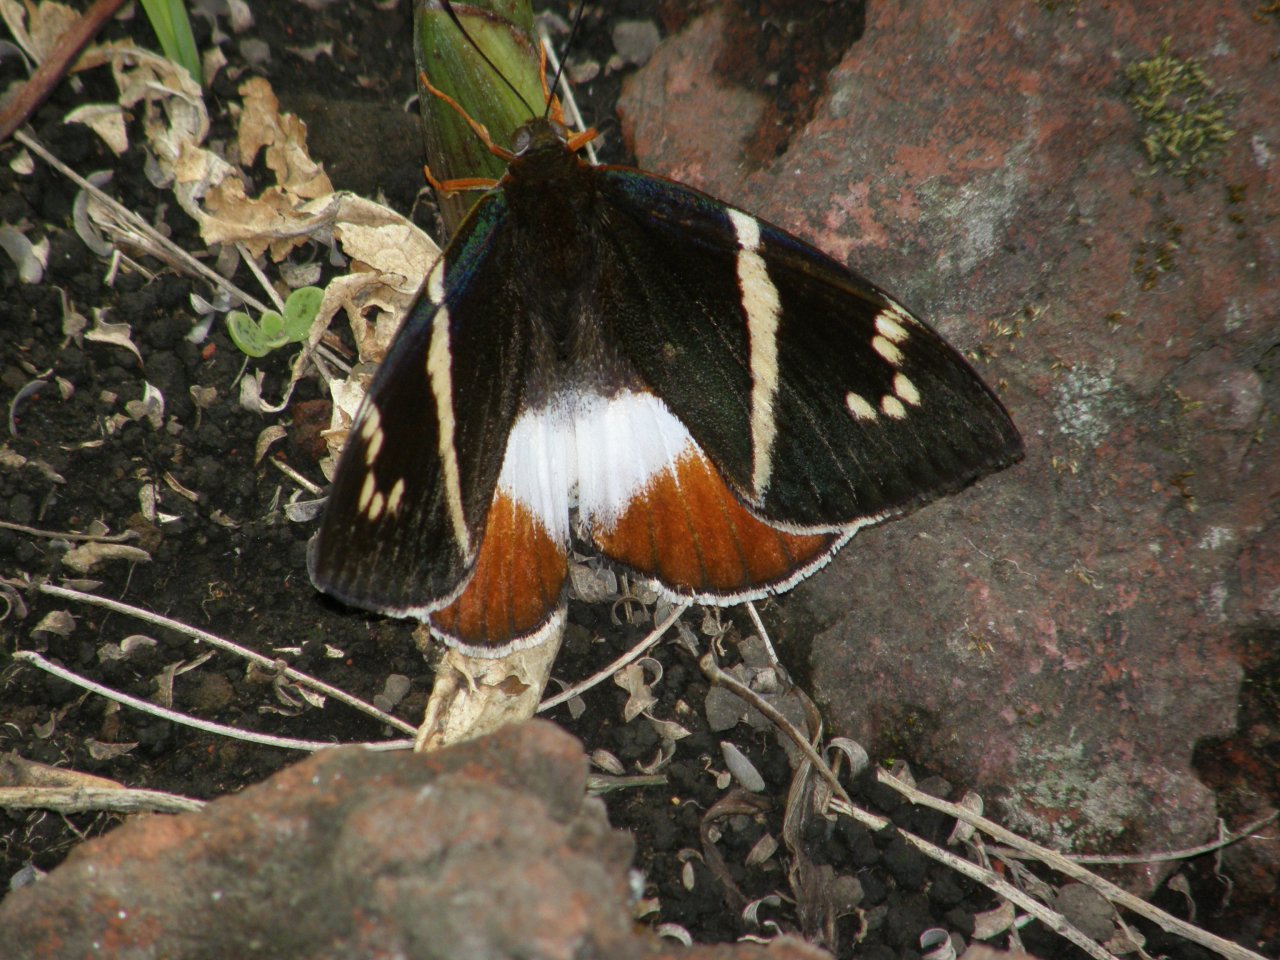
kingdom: Animalia
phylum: Arthropoda
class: Insecta
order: Lepidoptera
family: Nymphalidae
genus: Epiphile
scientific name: Epiphile adrasta
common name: Common Banner
